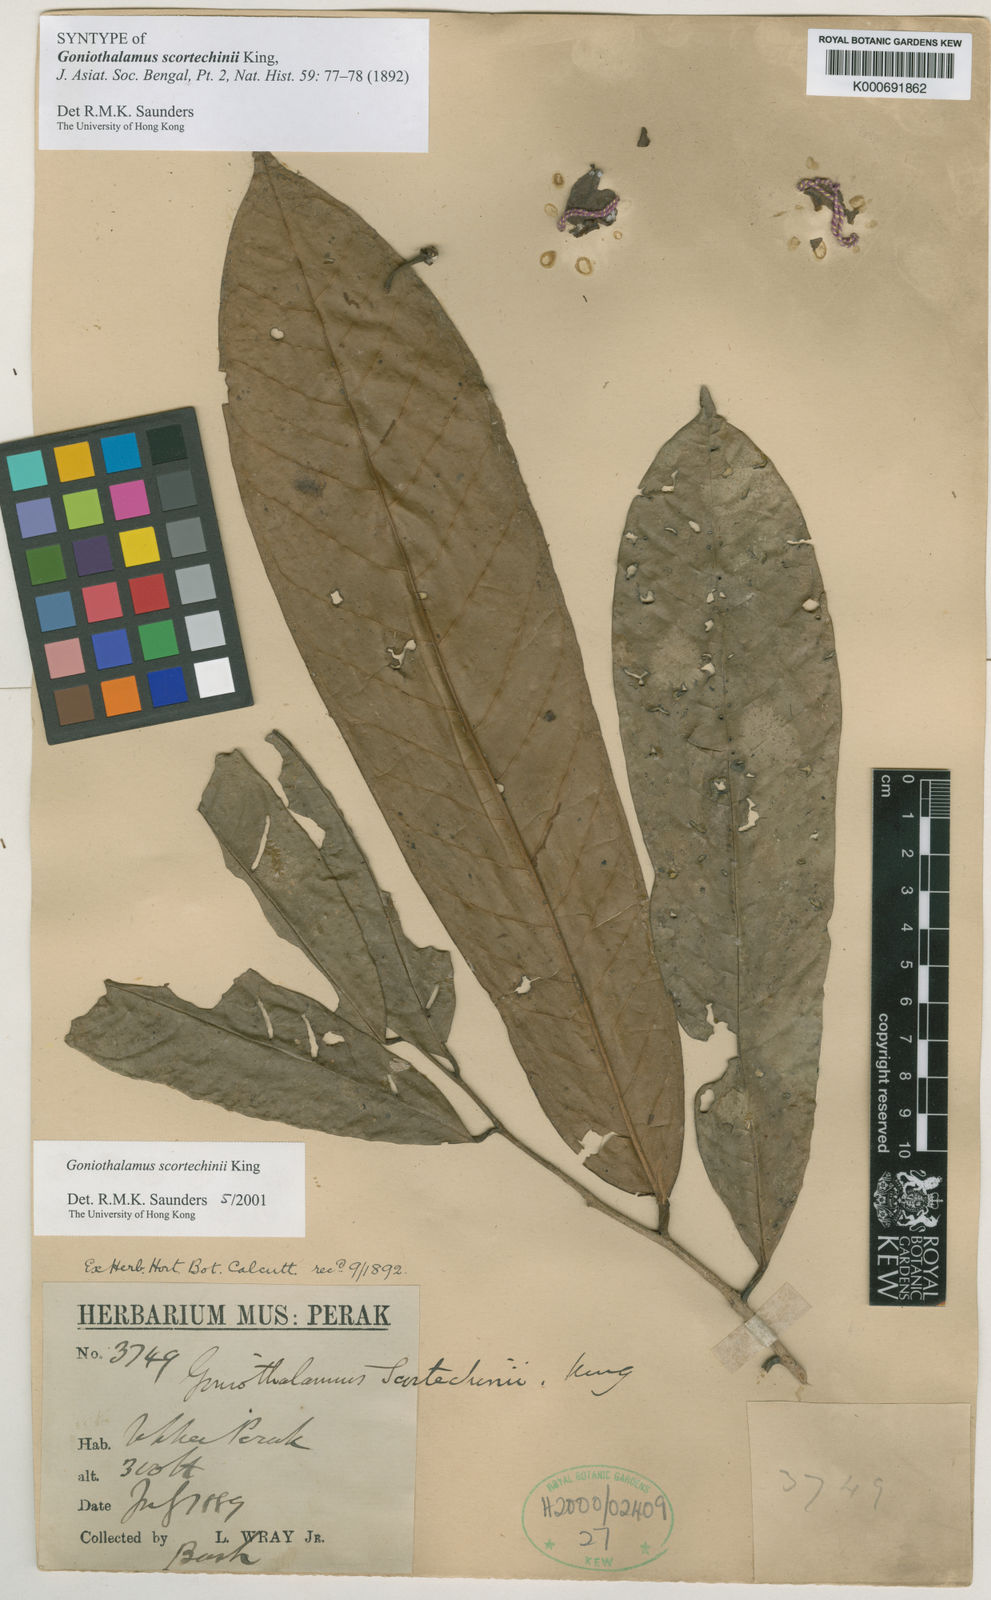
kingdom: Plantae
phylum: Tracheophyta
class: Magnoliopsida
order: Magnoliales
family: Annonaceae
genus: Goniothalamus
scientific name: Goniothalamus scortechinii
